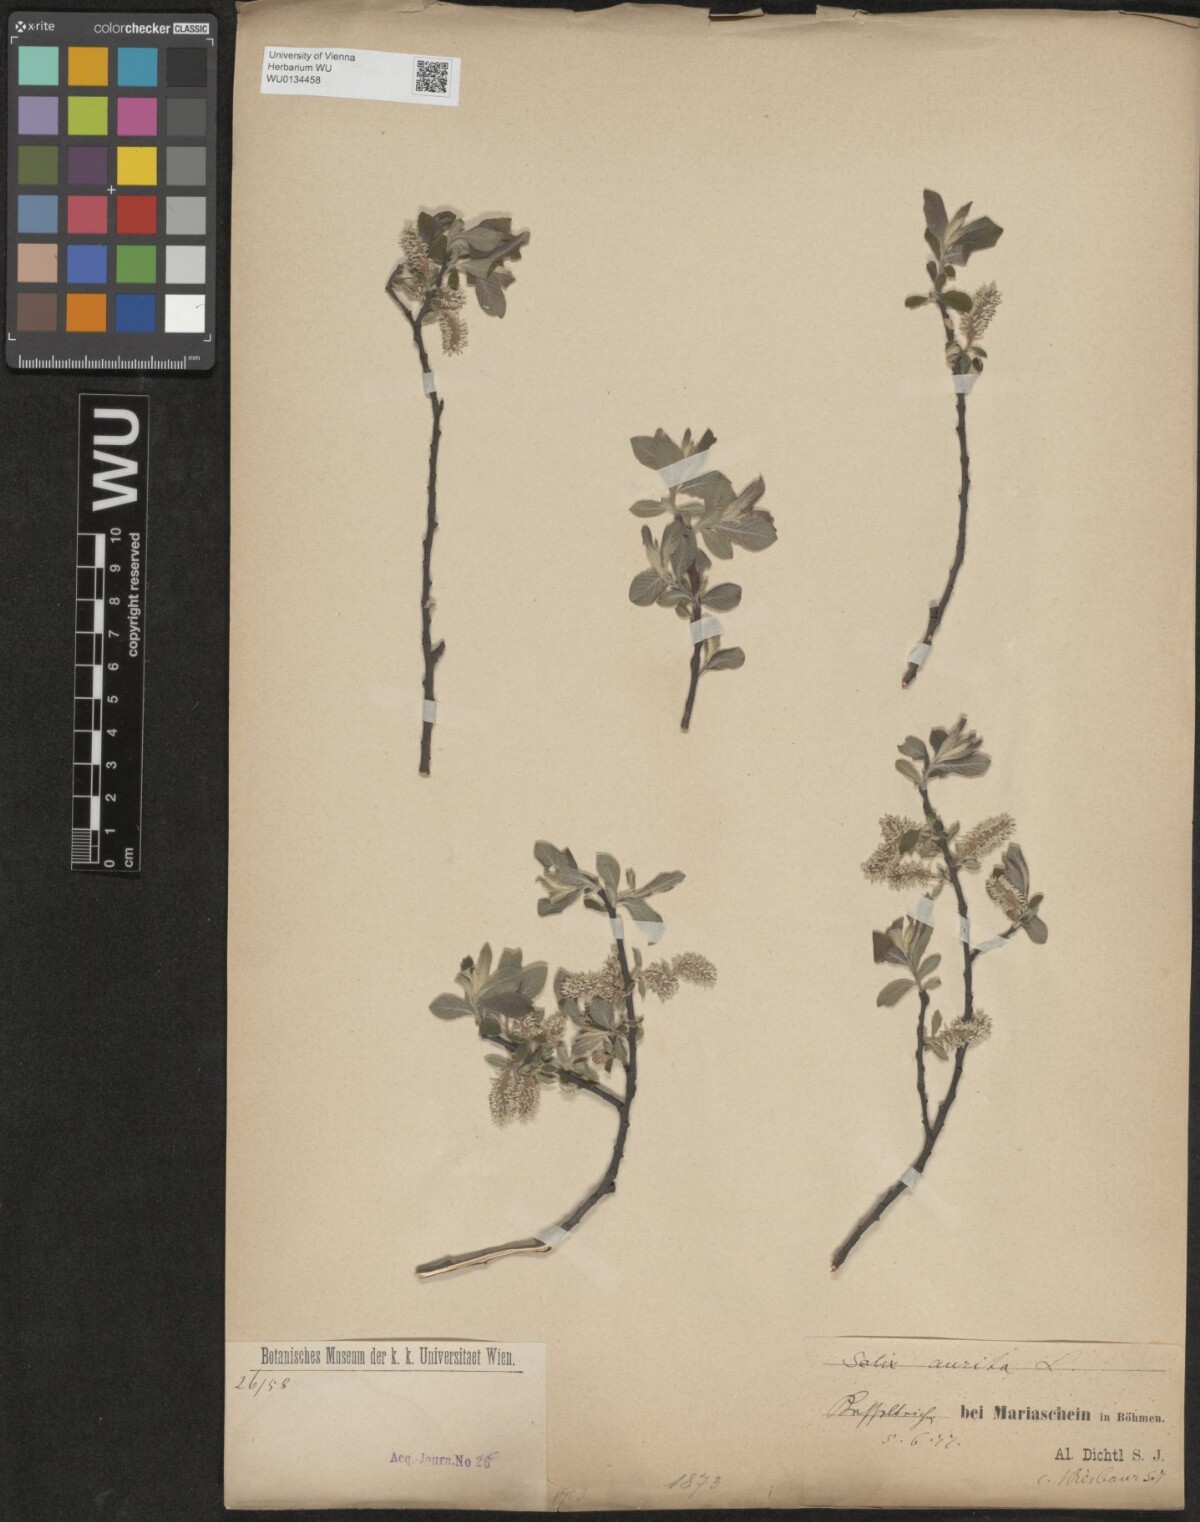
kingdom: Plantae
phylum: Tracheophyta
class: Magnoliopsida
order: Malpighiales
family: Salicaceae
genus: Salix
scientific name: Salix aurita
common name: Eared willow
